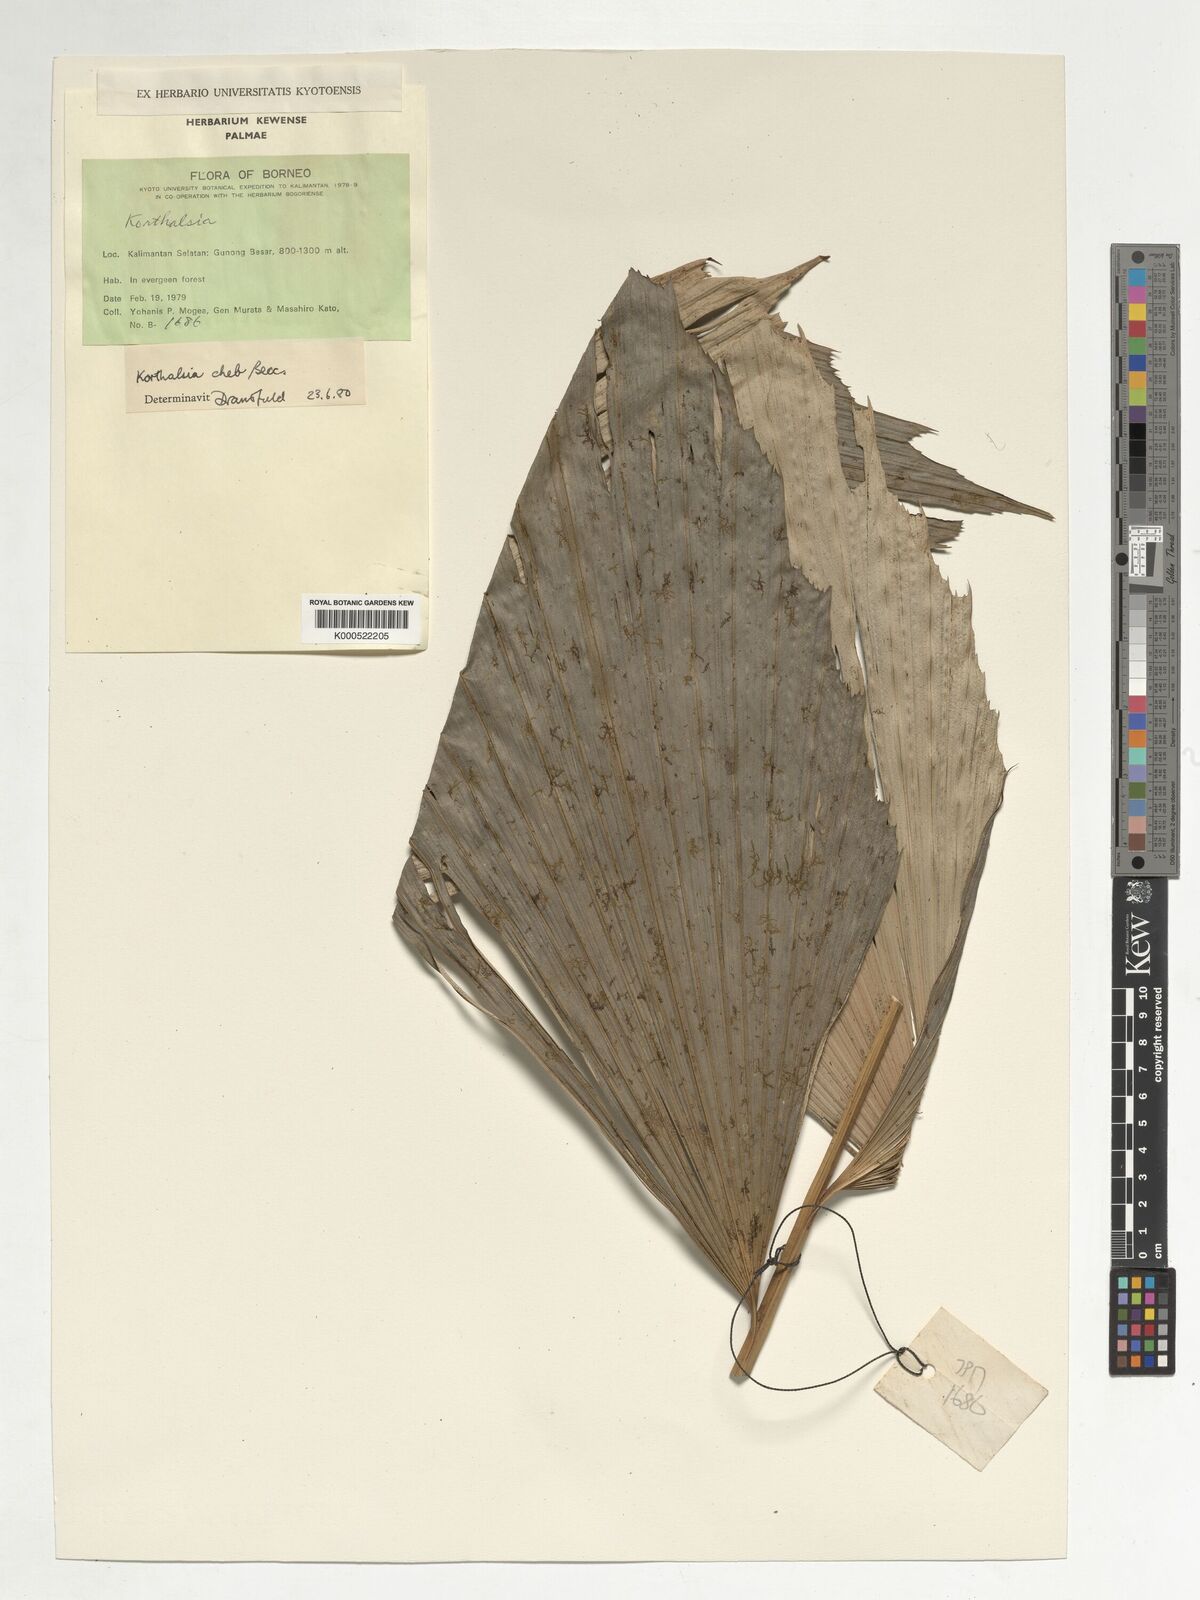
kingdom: Plantae
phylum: Tracheophyta
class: Liliopsida
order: Arecales
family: Arecaceae
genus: Korthalsia
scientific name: Korthalsia cheb
